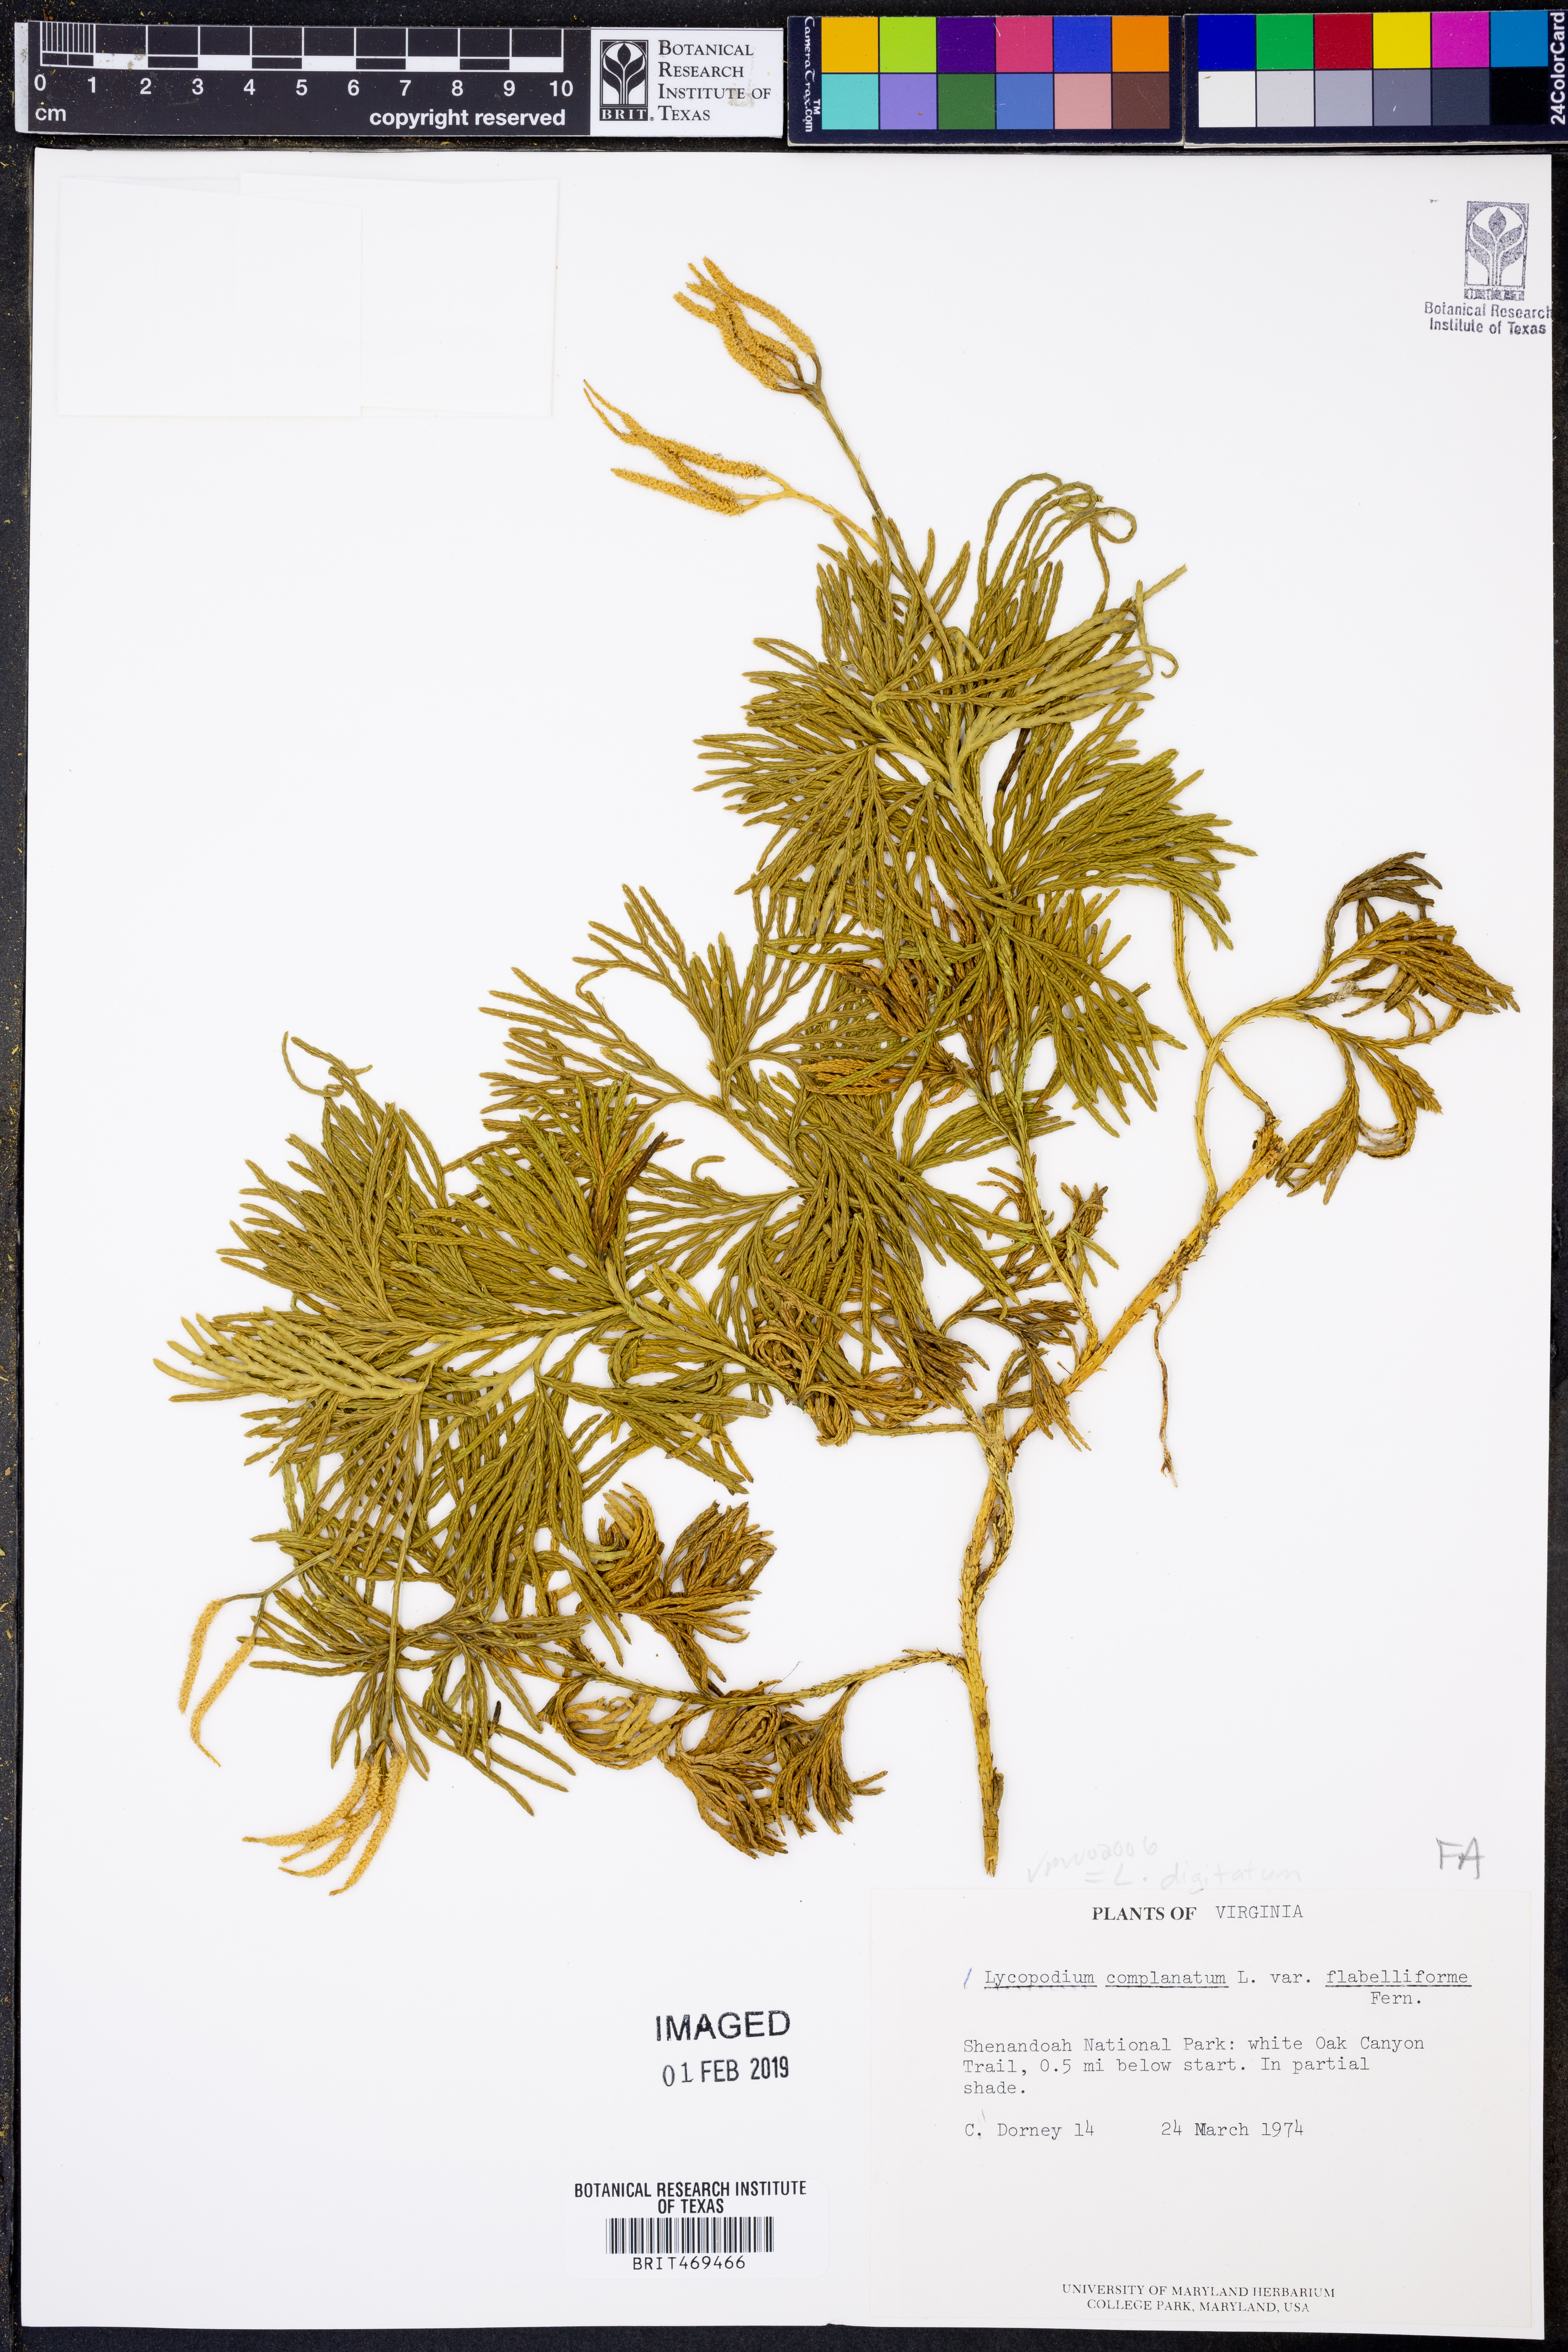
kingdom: Plantae
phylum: Tracheophyta
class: Lycopodiopsida
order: Lycopodiales
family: Lycopodiaceae
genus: Diphasiastrum
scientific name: Diphasiastrum digitatum
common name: Southern running-pine
